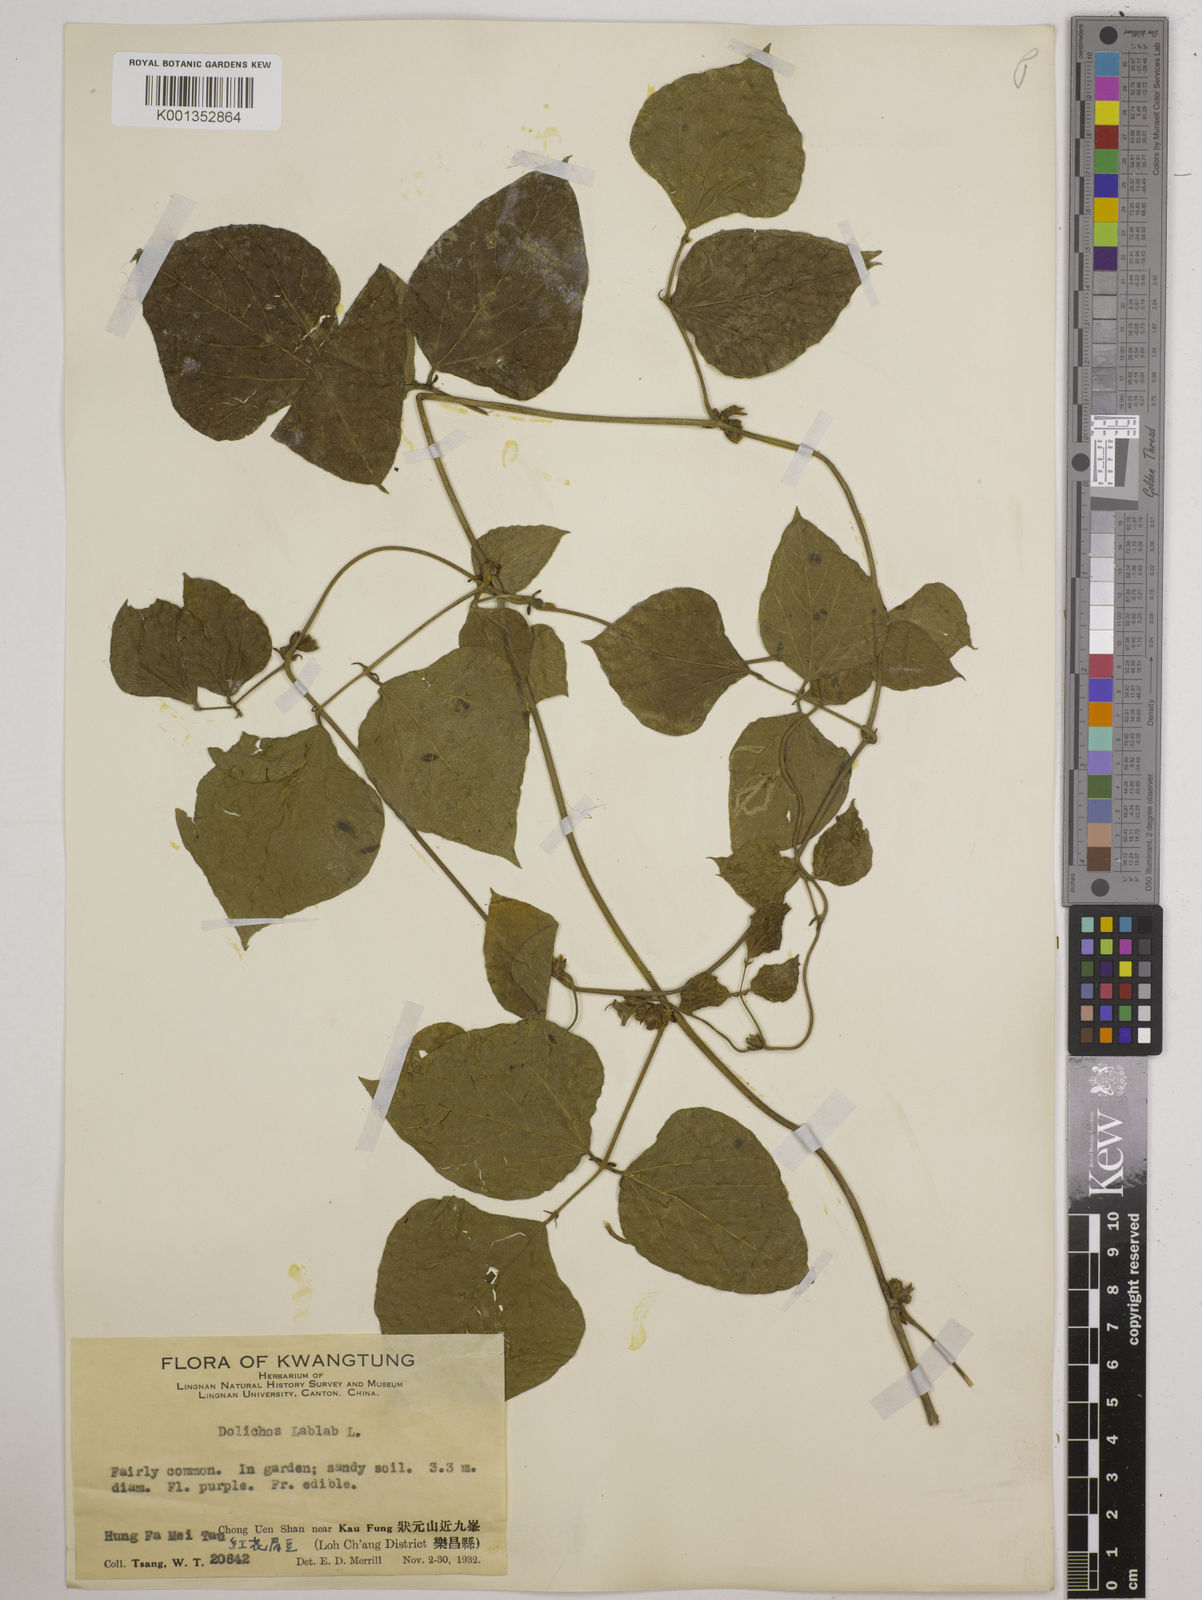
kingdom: Plantae
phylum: Tracheophyta
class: Magnoliopsida
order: Fabales
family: Fabaceae
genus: Lablab
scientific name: Lablab purpureus
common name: Lablab-bean
